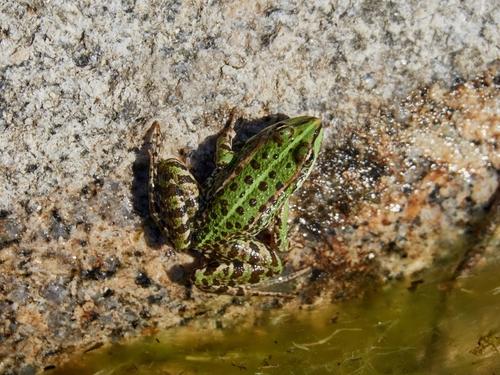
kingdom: Animalia
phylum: Chordata
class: Amphibia
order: Anura
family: Ranidae
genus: Pelophylax
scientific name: Pelophylax perezi
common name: Perez's frog
